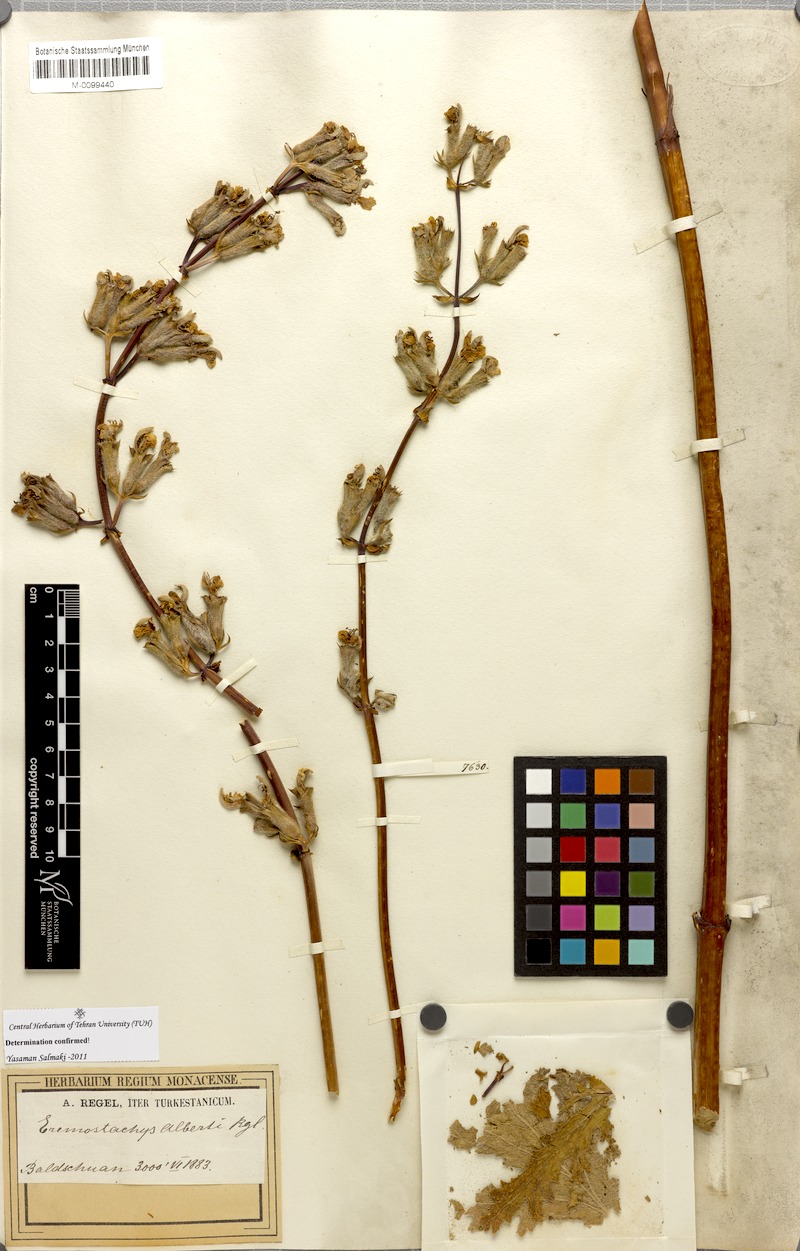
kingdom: Plantae
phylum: Tracheophyta
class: Magnoliopsida
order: Lamiales
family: Lamiaceae
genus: Phlomoides
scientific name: Phlomoides alberti
